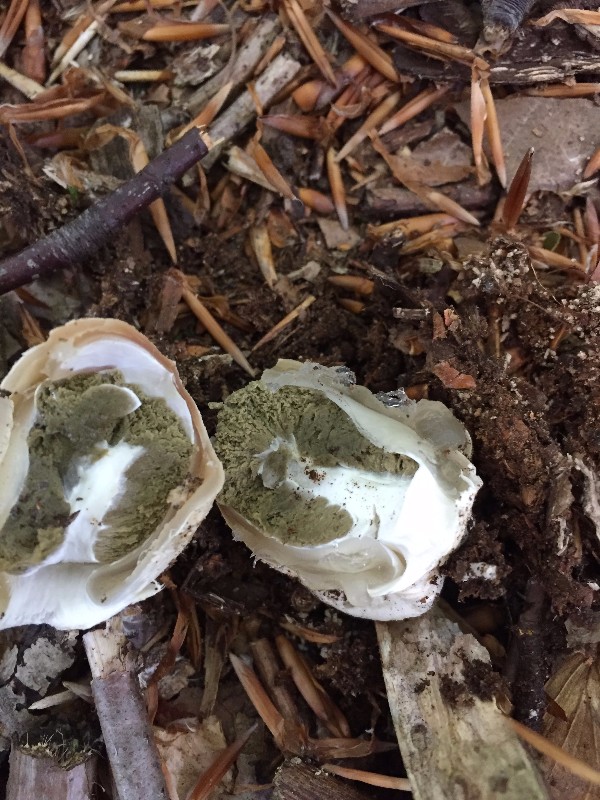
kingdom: Fungi
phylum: Basidiomycota
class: Agaricomycetes
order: Phallales
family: Phallaceae
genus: Phallus
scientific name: Phallus impudicus
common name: almindelig stinksvamp
